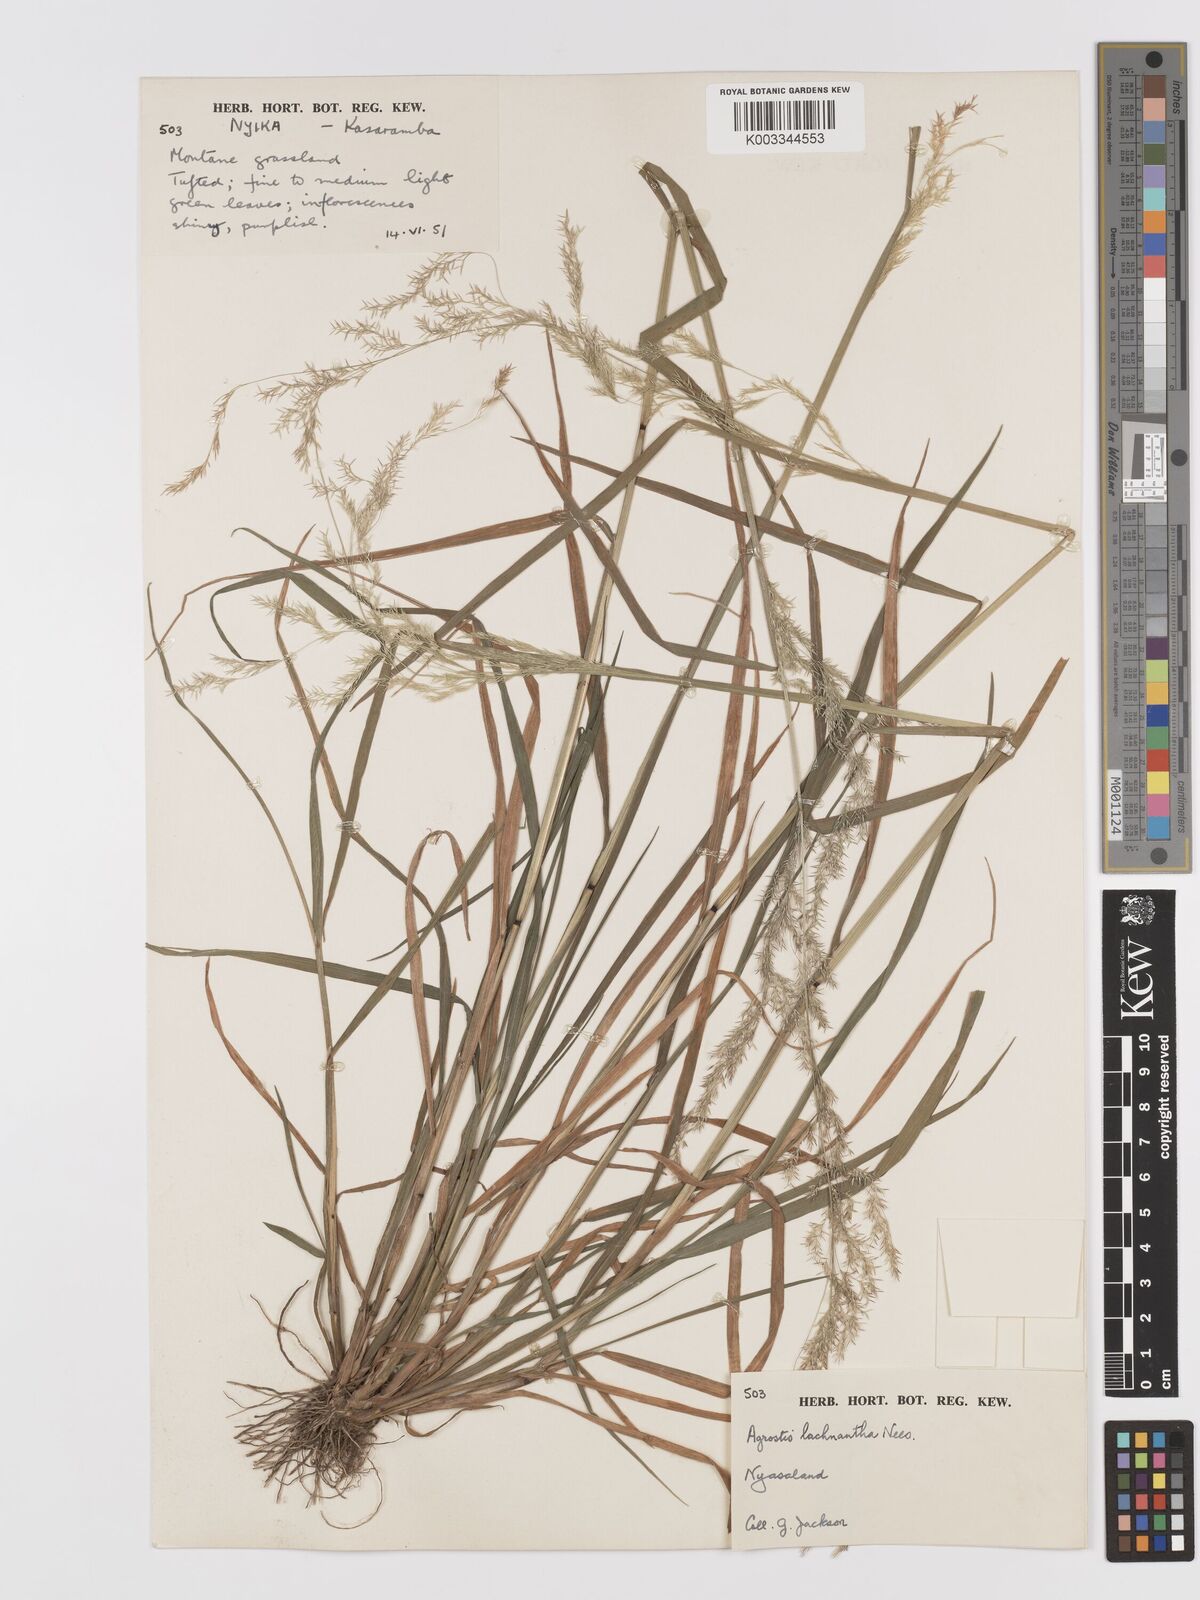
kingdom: Plantae
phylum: Tracheophyta
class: Liliopsida
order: Poales
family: Poaceae
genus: Lachnagrostis
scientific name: Lachnagrostis lachnantha
